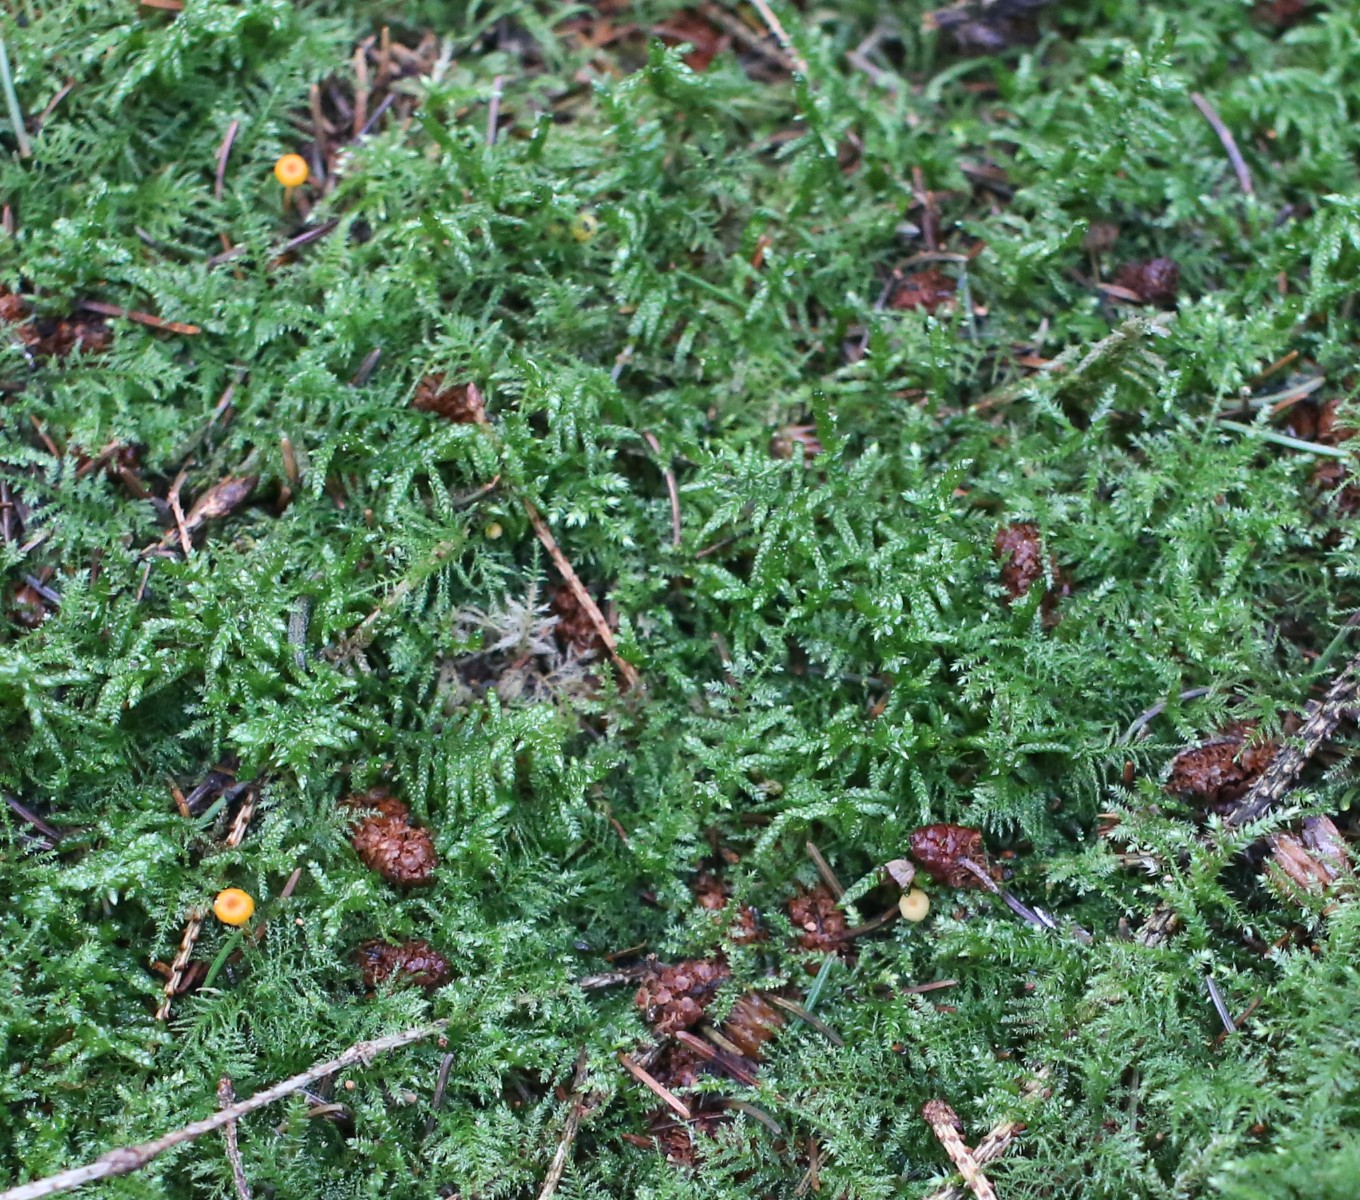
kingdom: Fungi
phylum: Basidiomycota
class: Agaricomycetes
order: Hymenochaetales
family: Rickenellaceae
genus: Rickenella
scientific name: Rickenella fibula
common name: orange mosnavlehat
